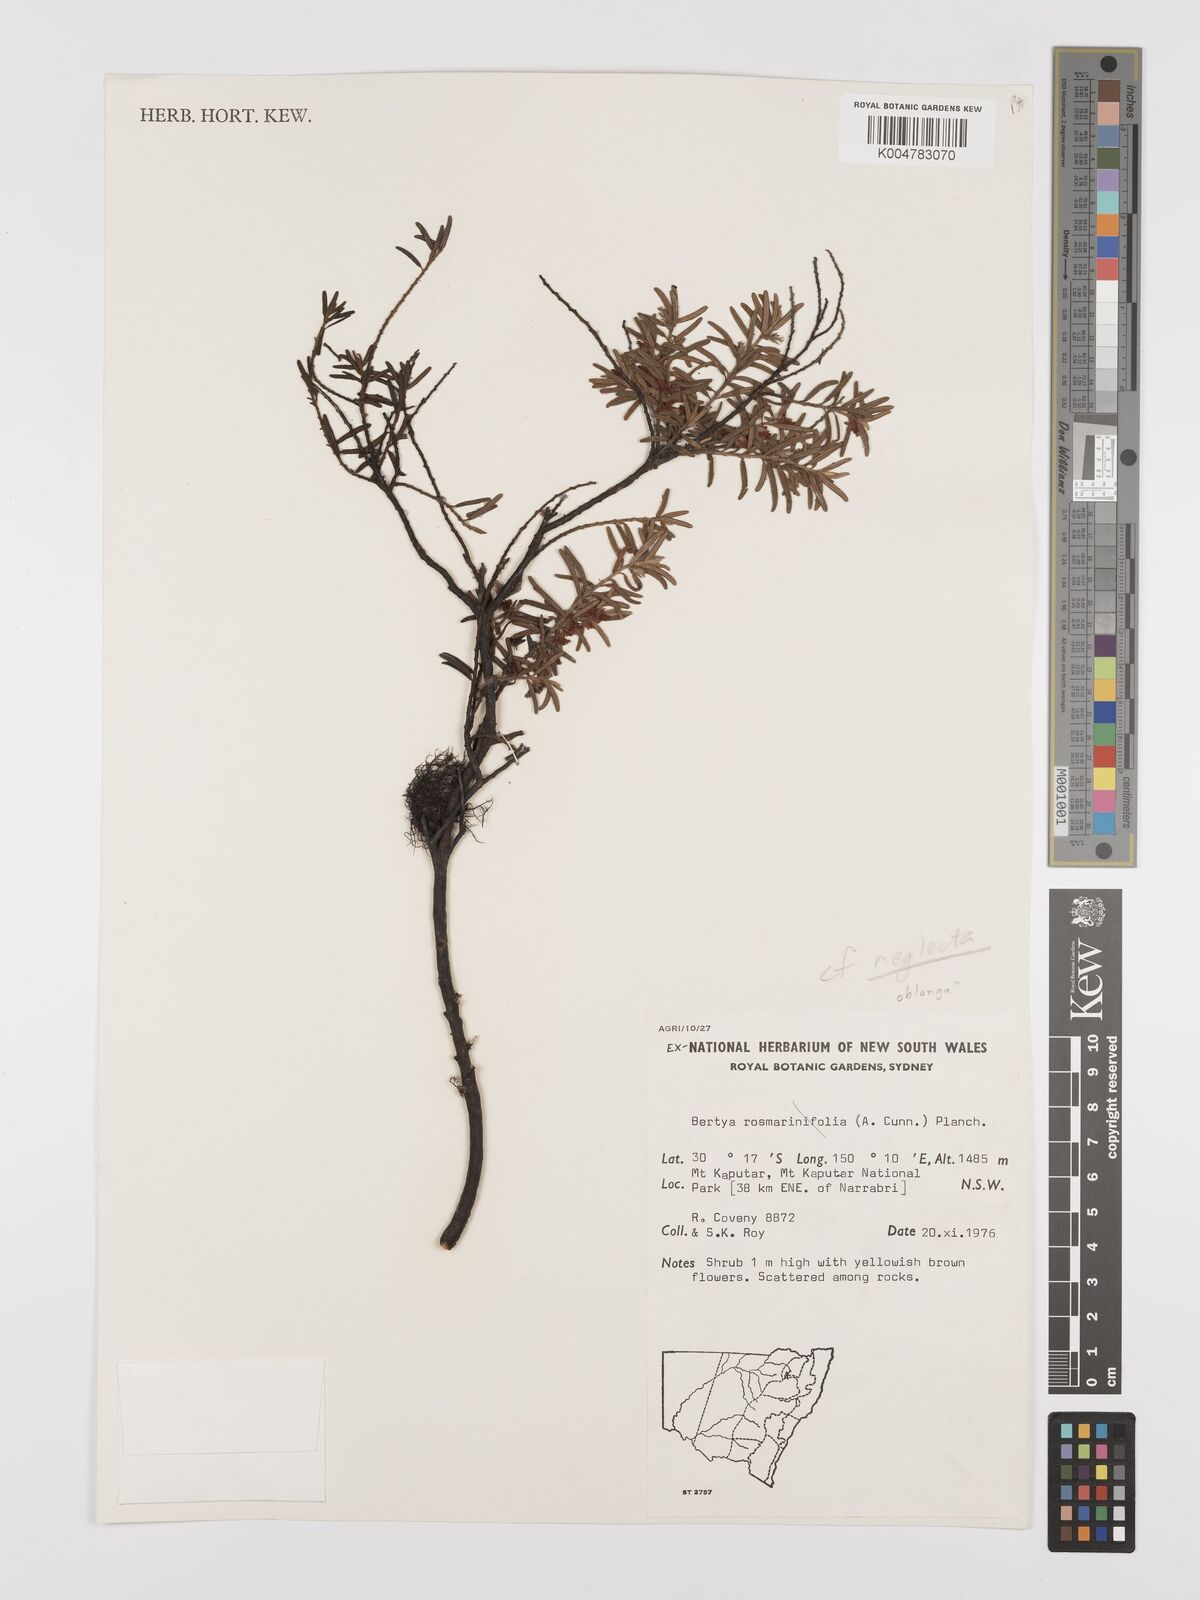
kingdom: Plantae
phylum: Tracheophyta
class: Magnoliopsida
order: Malpighiales
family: Euphorbiaceae
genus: Bertya
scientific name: Bertya oblonga
